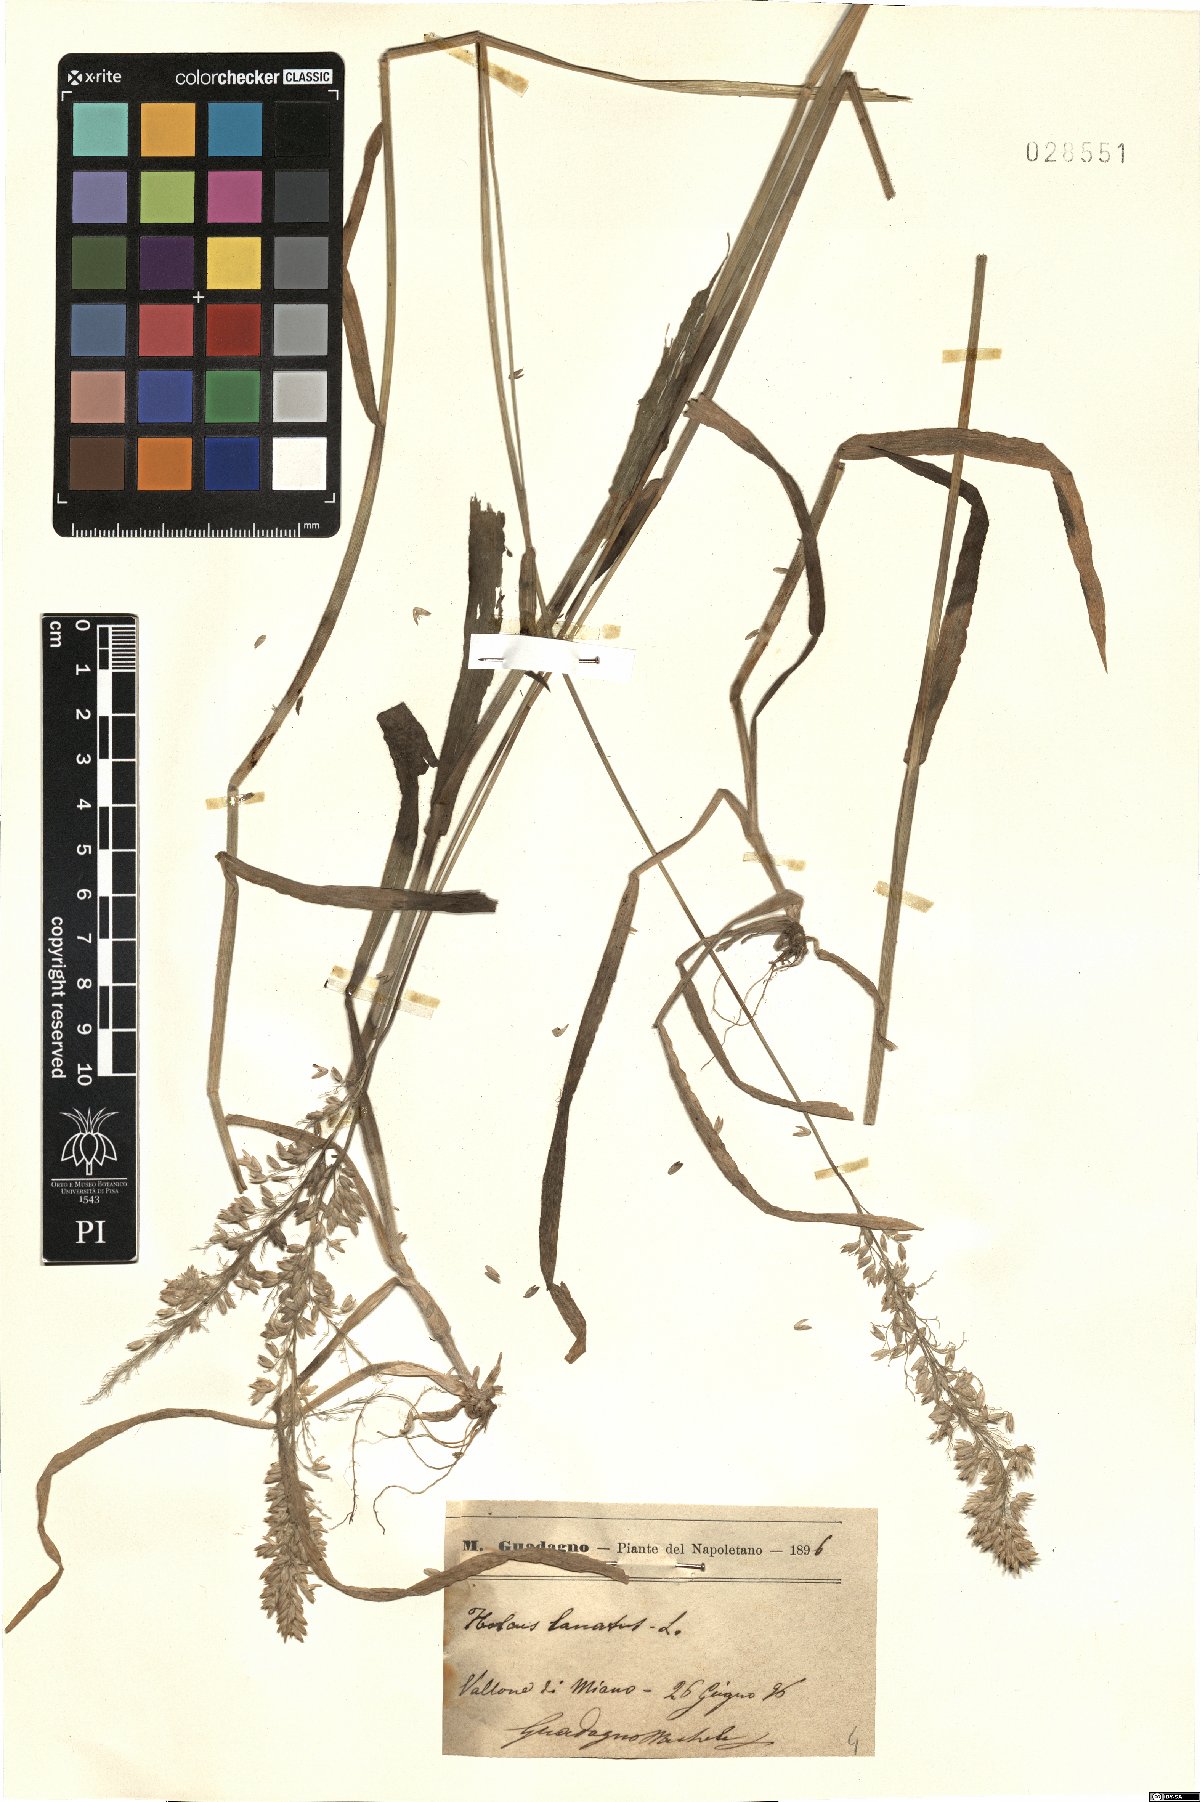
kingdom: Plantae
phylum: Tracheophyta
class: Liliopsida
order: Poales
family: Poaceae
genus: Holcus
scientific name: Holcus lanatus
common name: Yorkshire-fog
